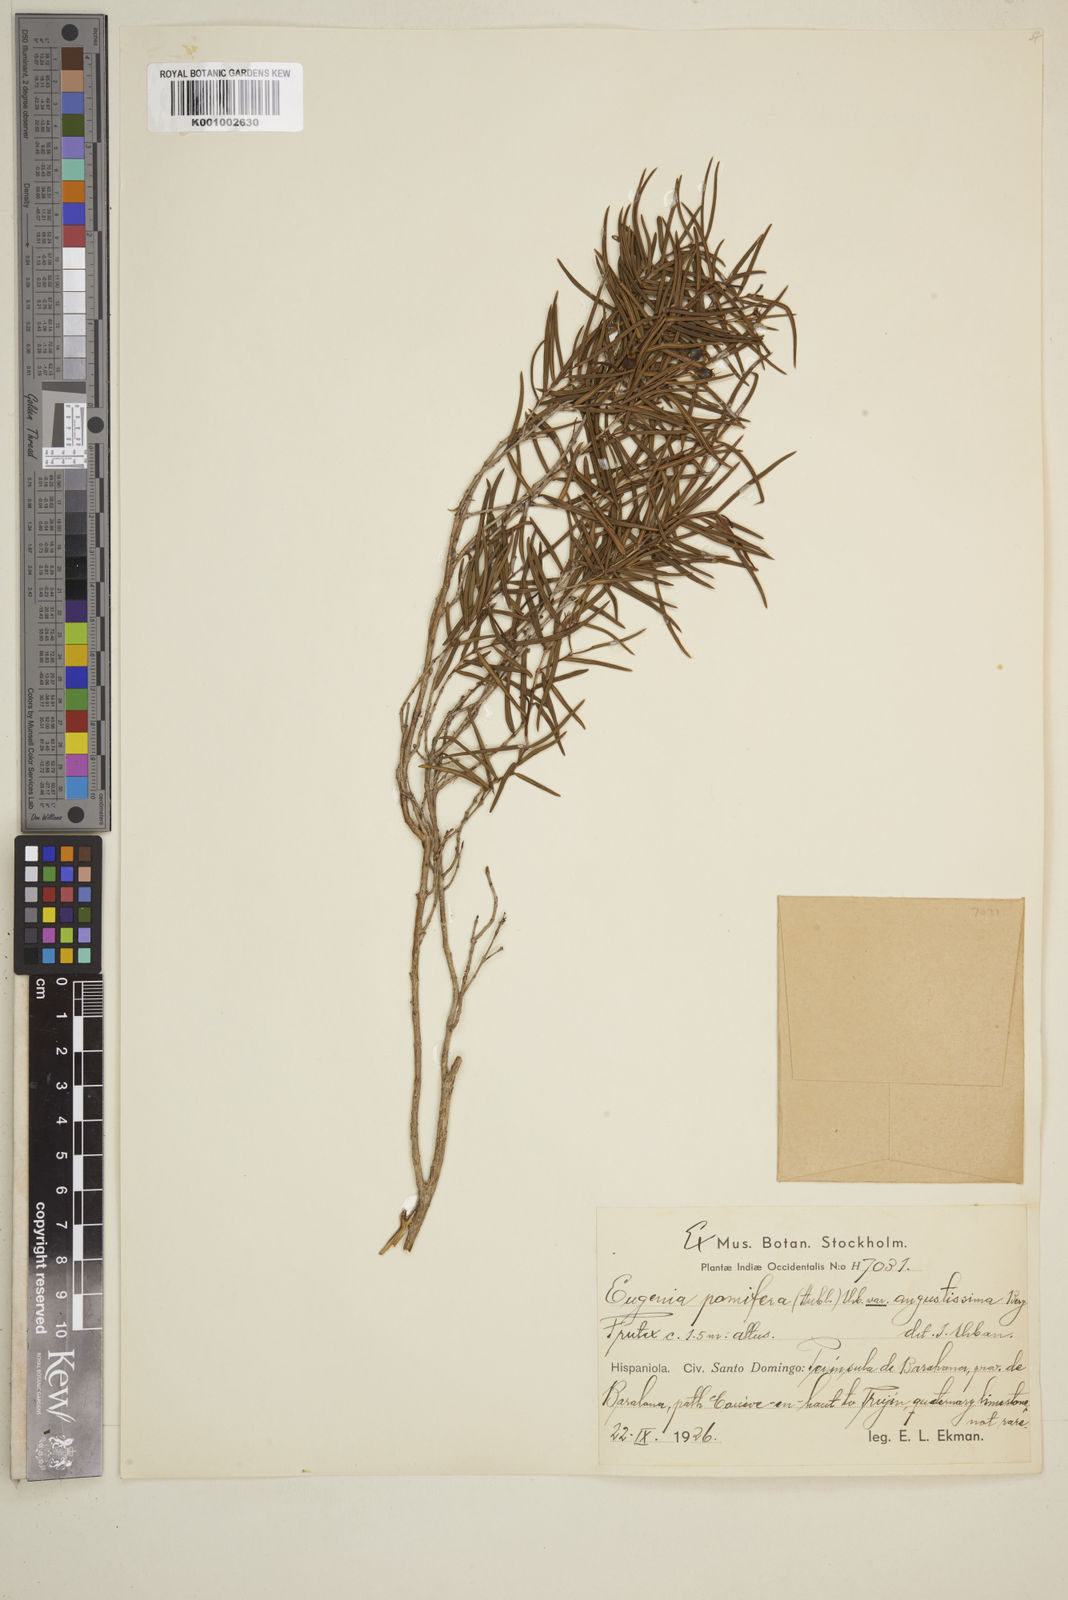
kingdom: Plantae
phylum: Tracheophyta
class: Magnoliopsida
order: Myrtales
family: Myrtaceae
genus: Eugenia
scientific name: Eugenia pomifera
